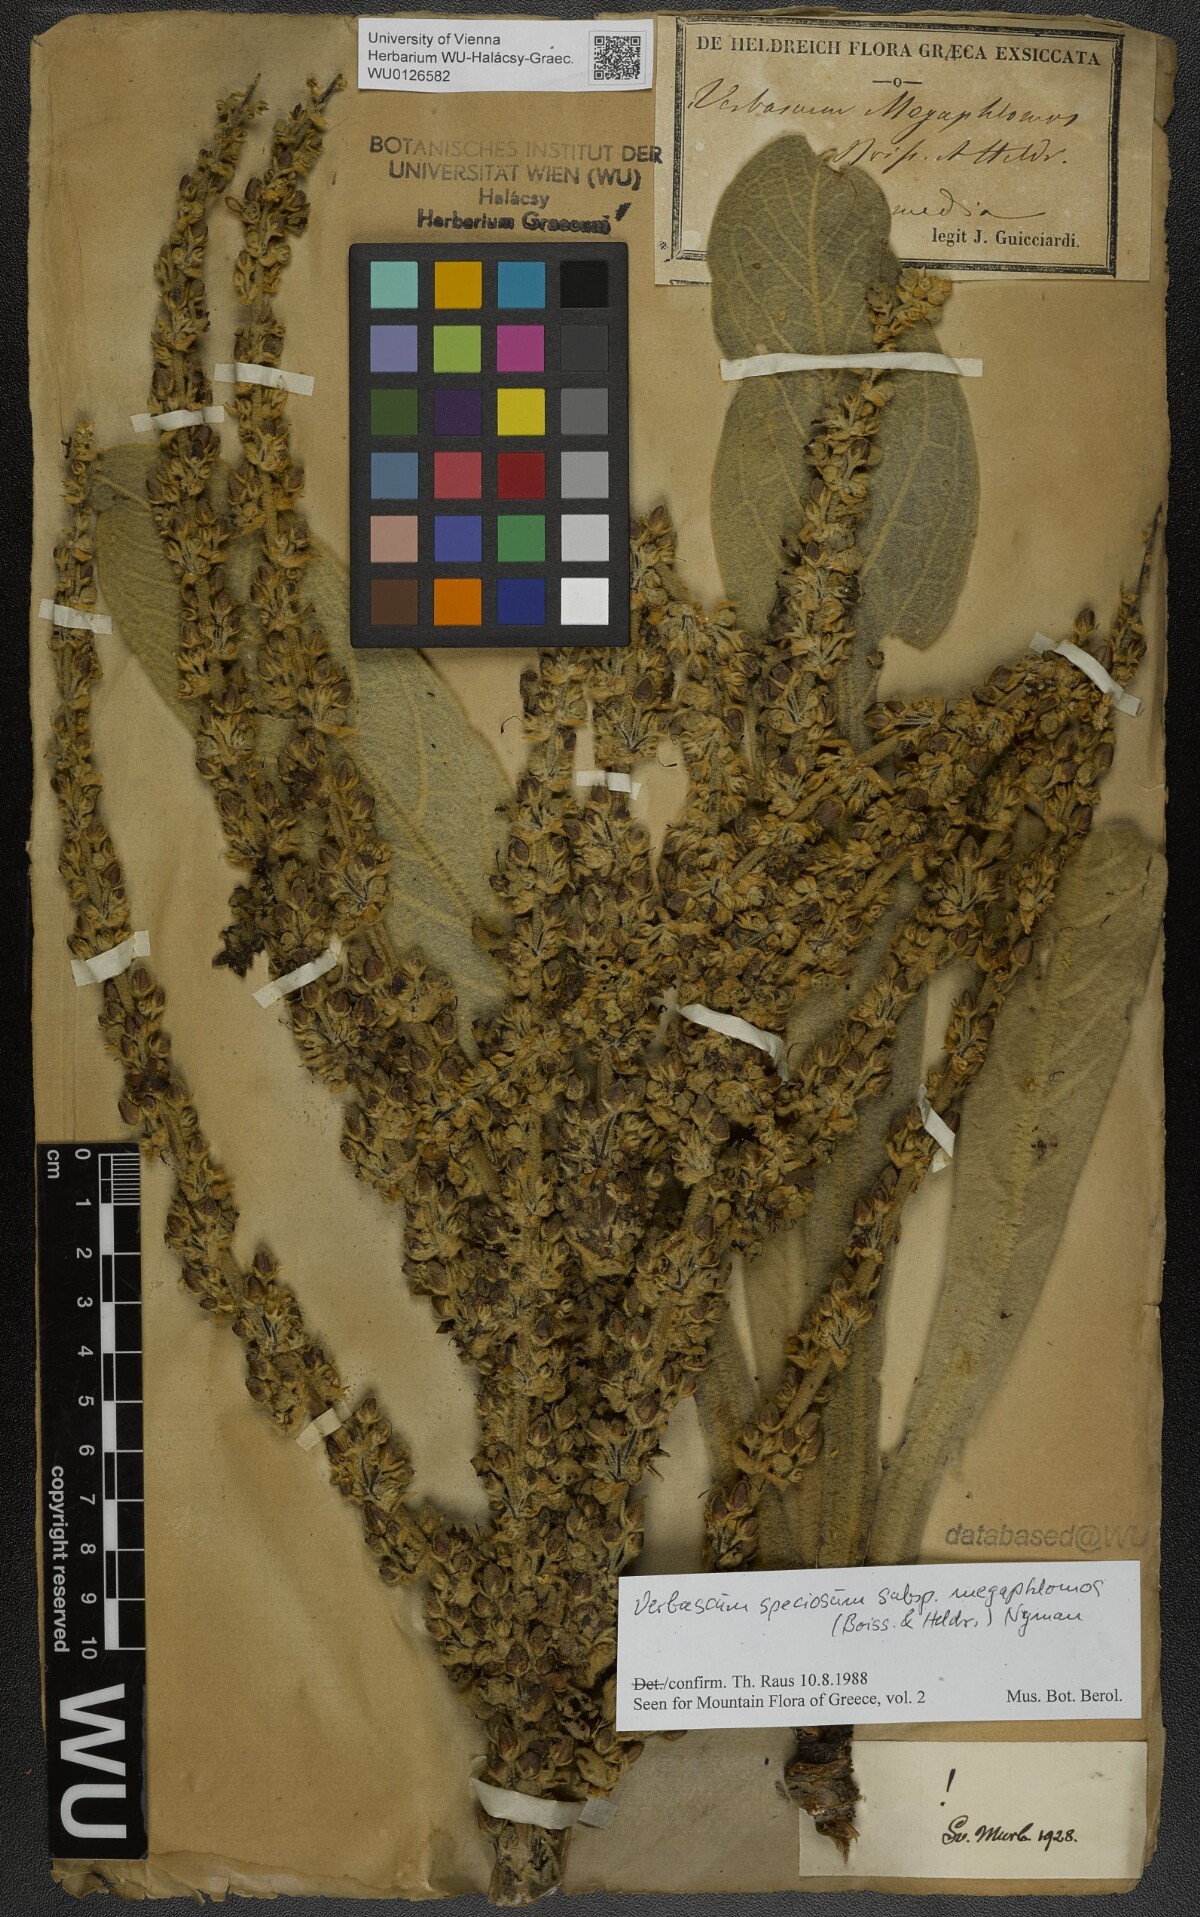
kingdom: Plantae
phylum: Tracheophyta
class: Magnoliopsida
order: Lamiales
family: Scrophulariaceae
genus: Verbascum
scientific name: Verbascum speciosum
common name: Hungarian mullein
